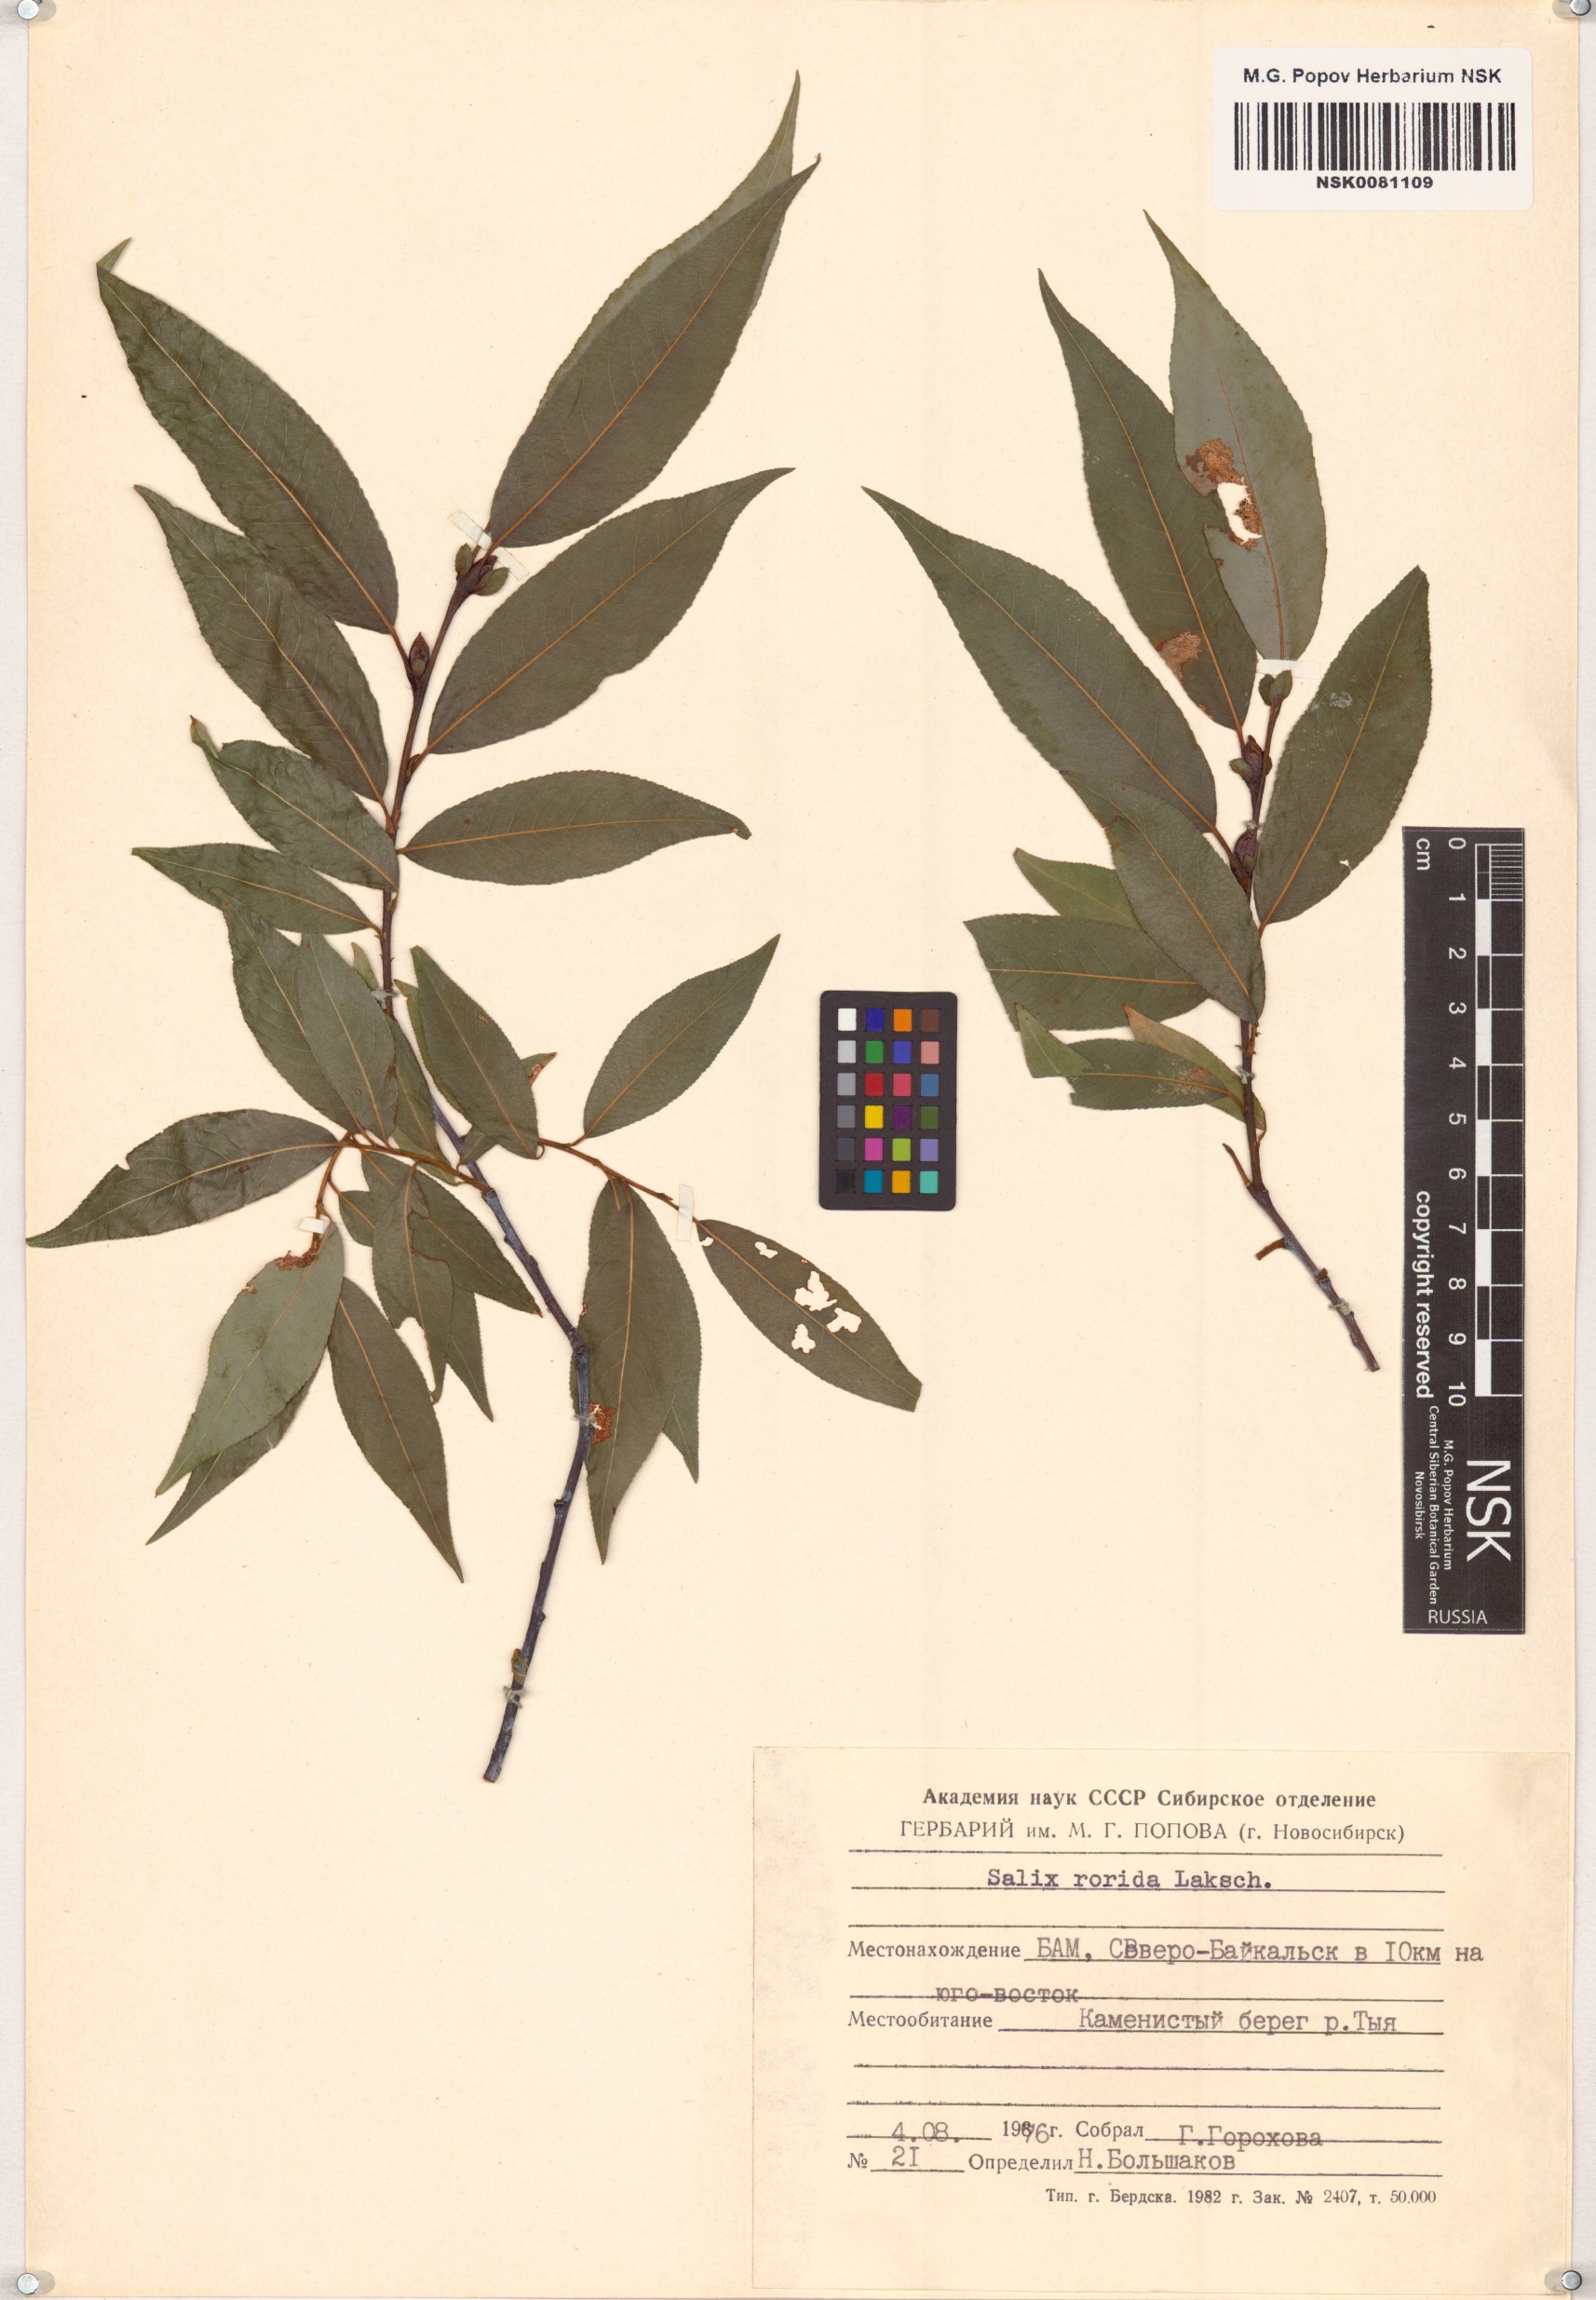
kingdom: Plantae
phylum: Tracheophyta
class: Magnoliopsida
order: Malpighiales
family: Salicaceae
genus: Salix
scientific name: Salix rorida
